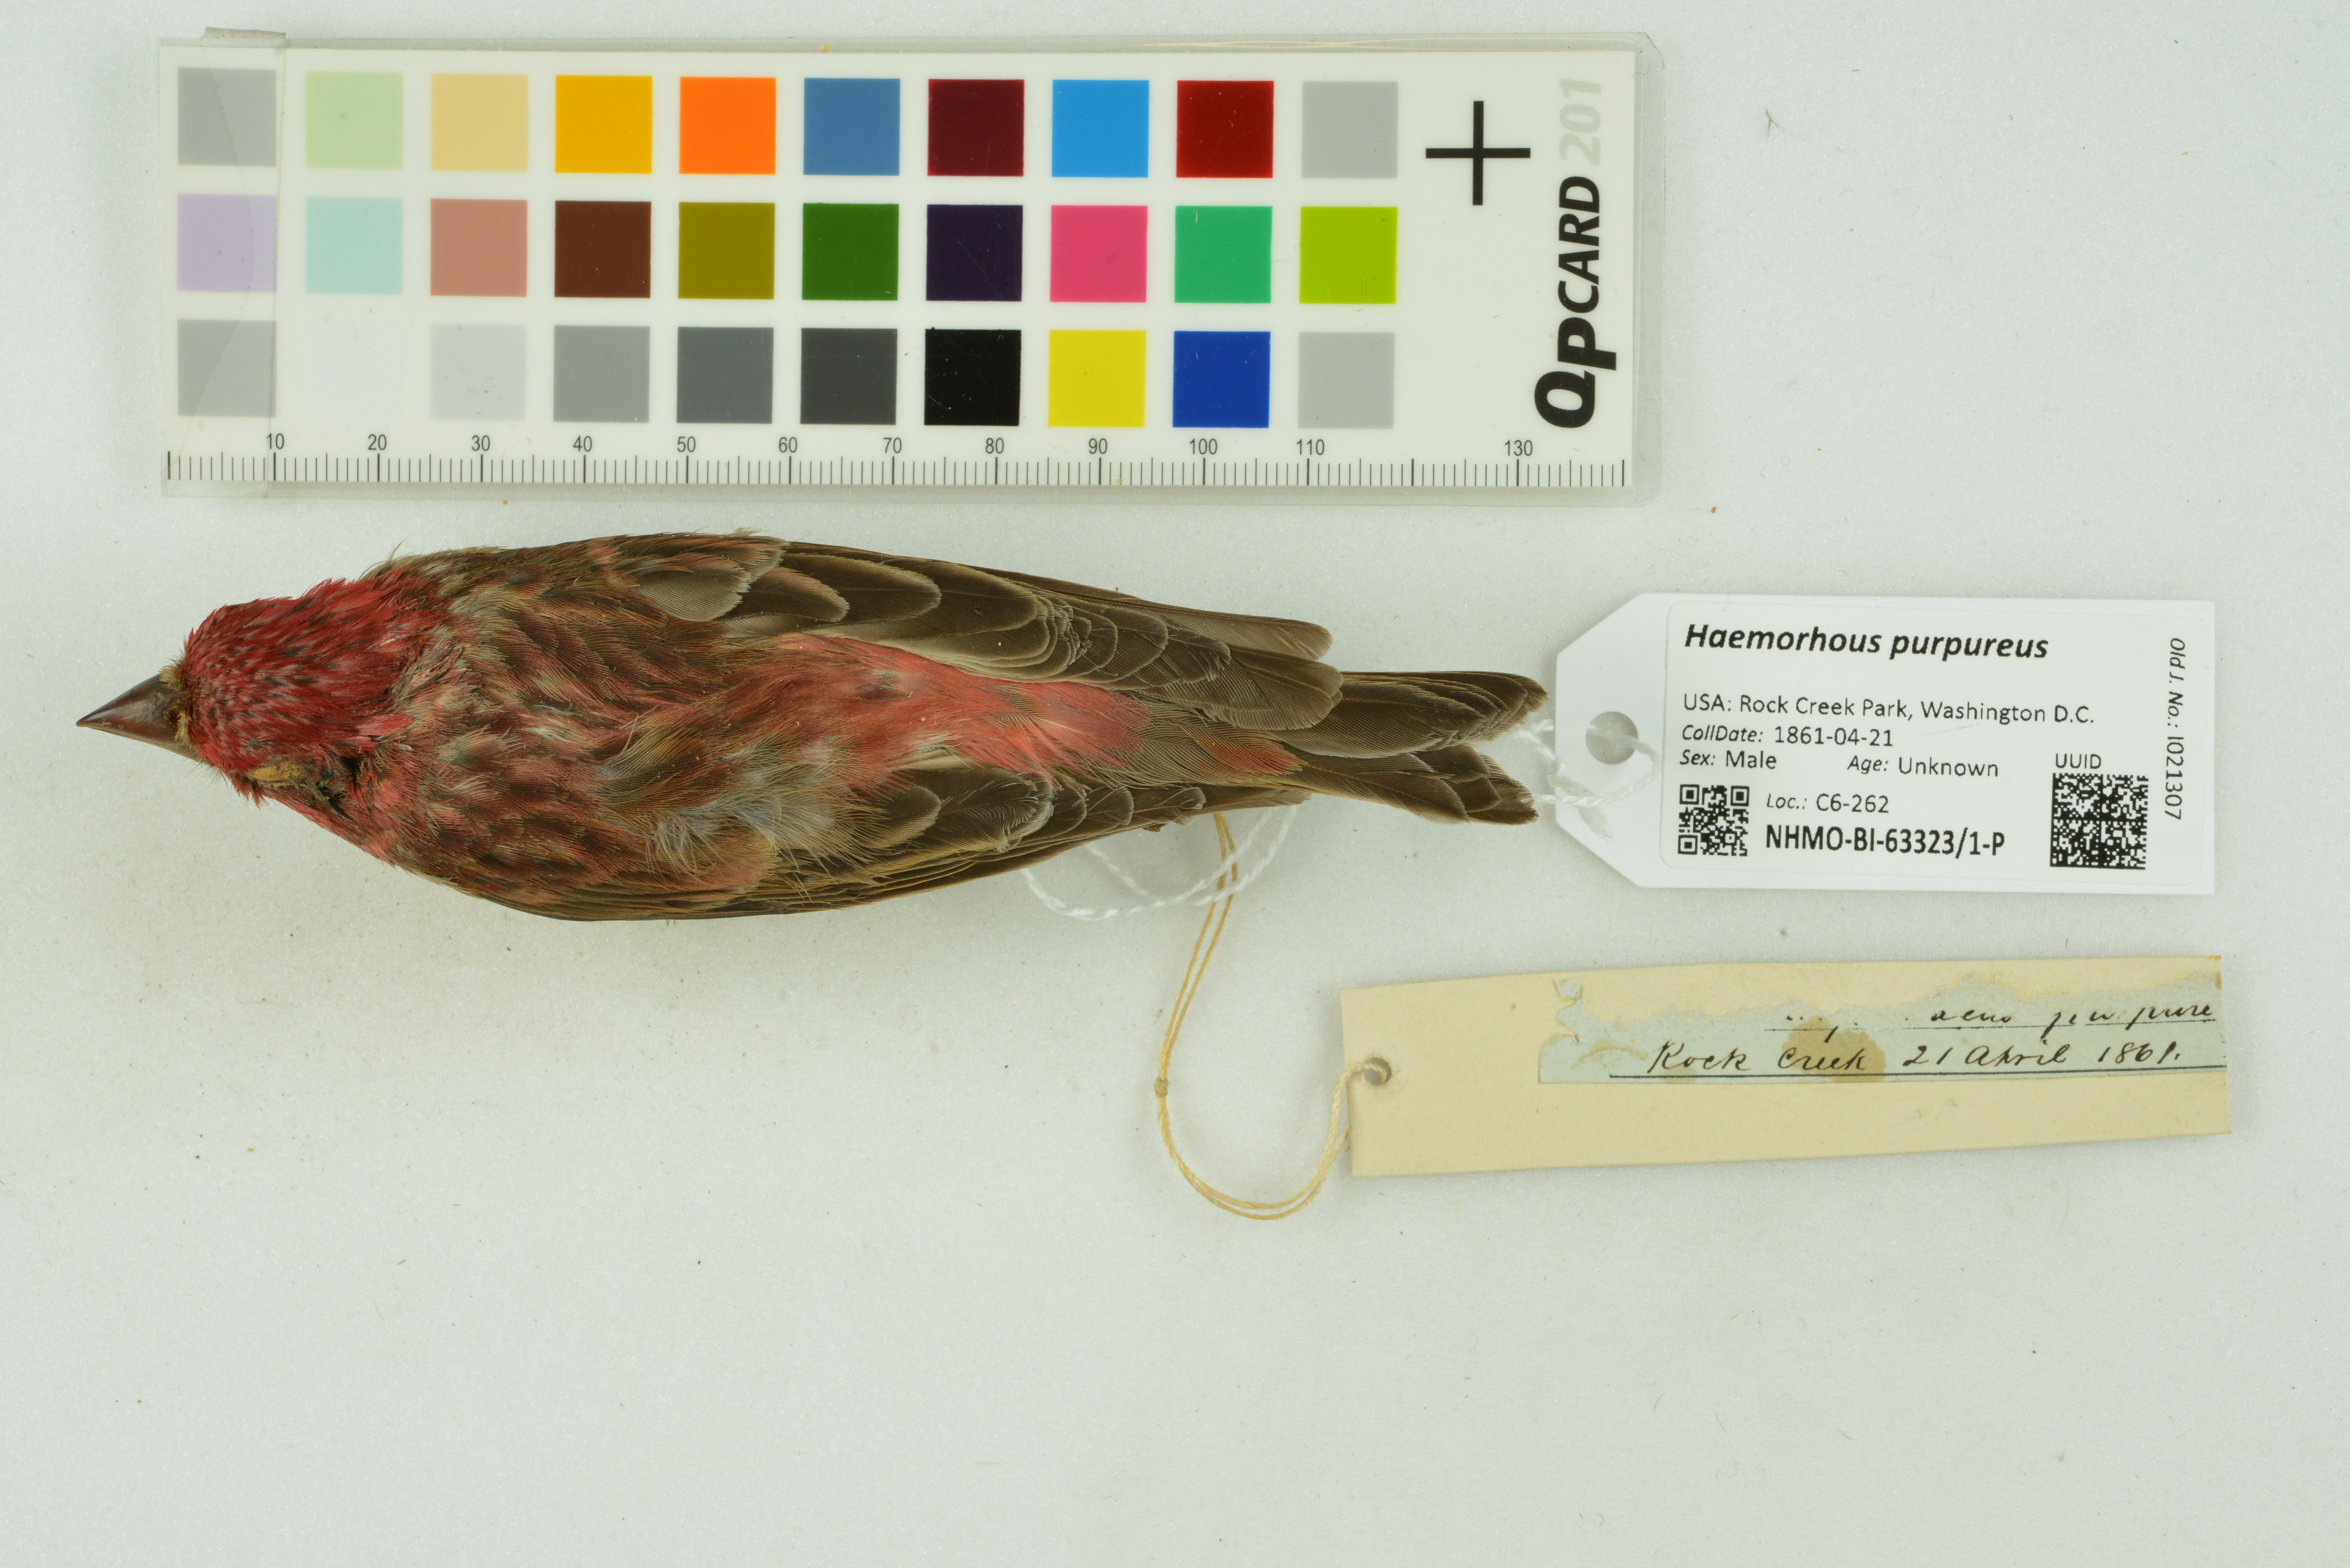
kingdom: Animalia
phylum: Chordata
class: Aves
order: Passeriformes
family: Fringillidae
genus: Haemorhous
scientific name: Haemorhous purpureus
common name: Purple finch
